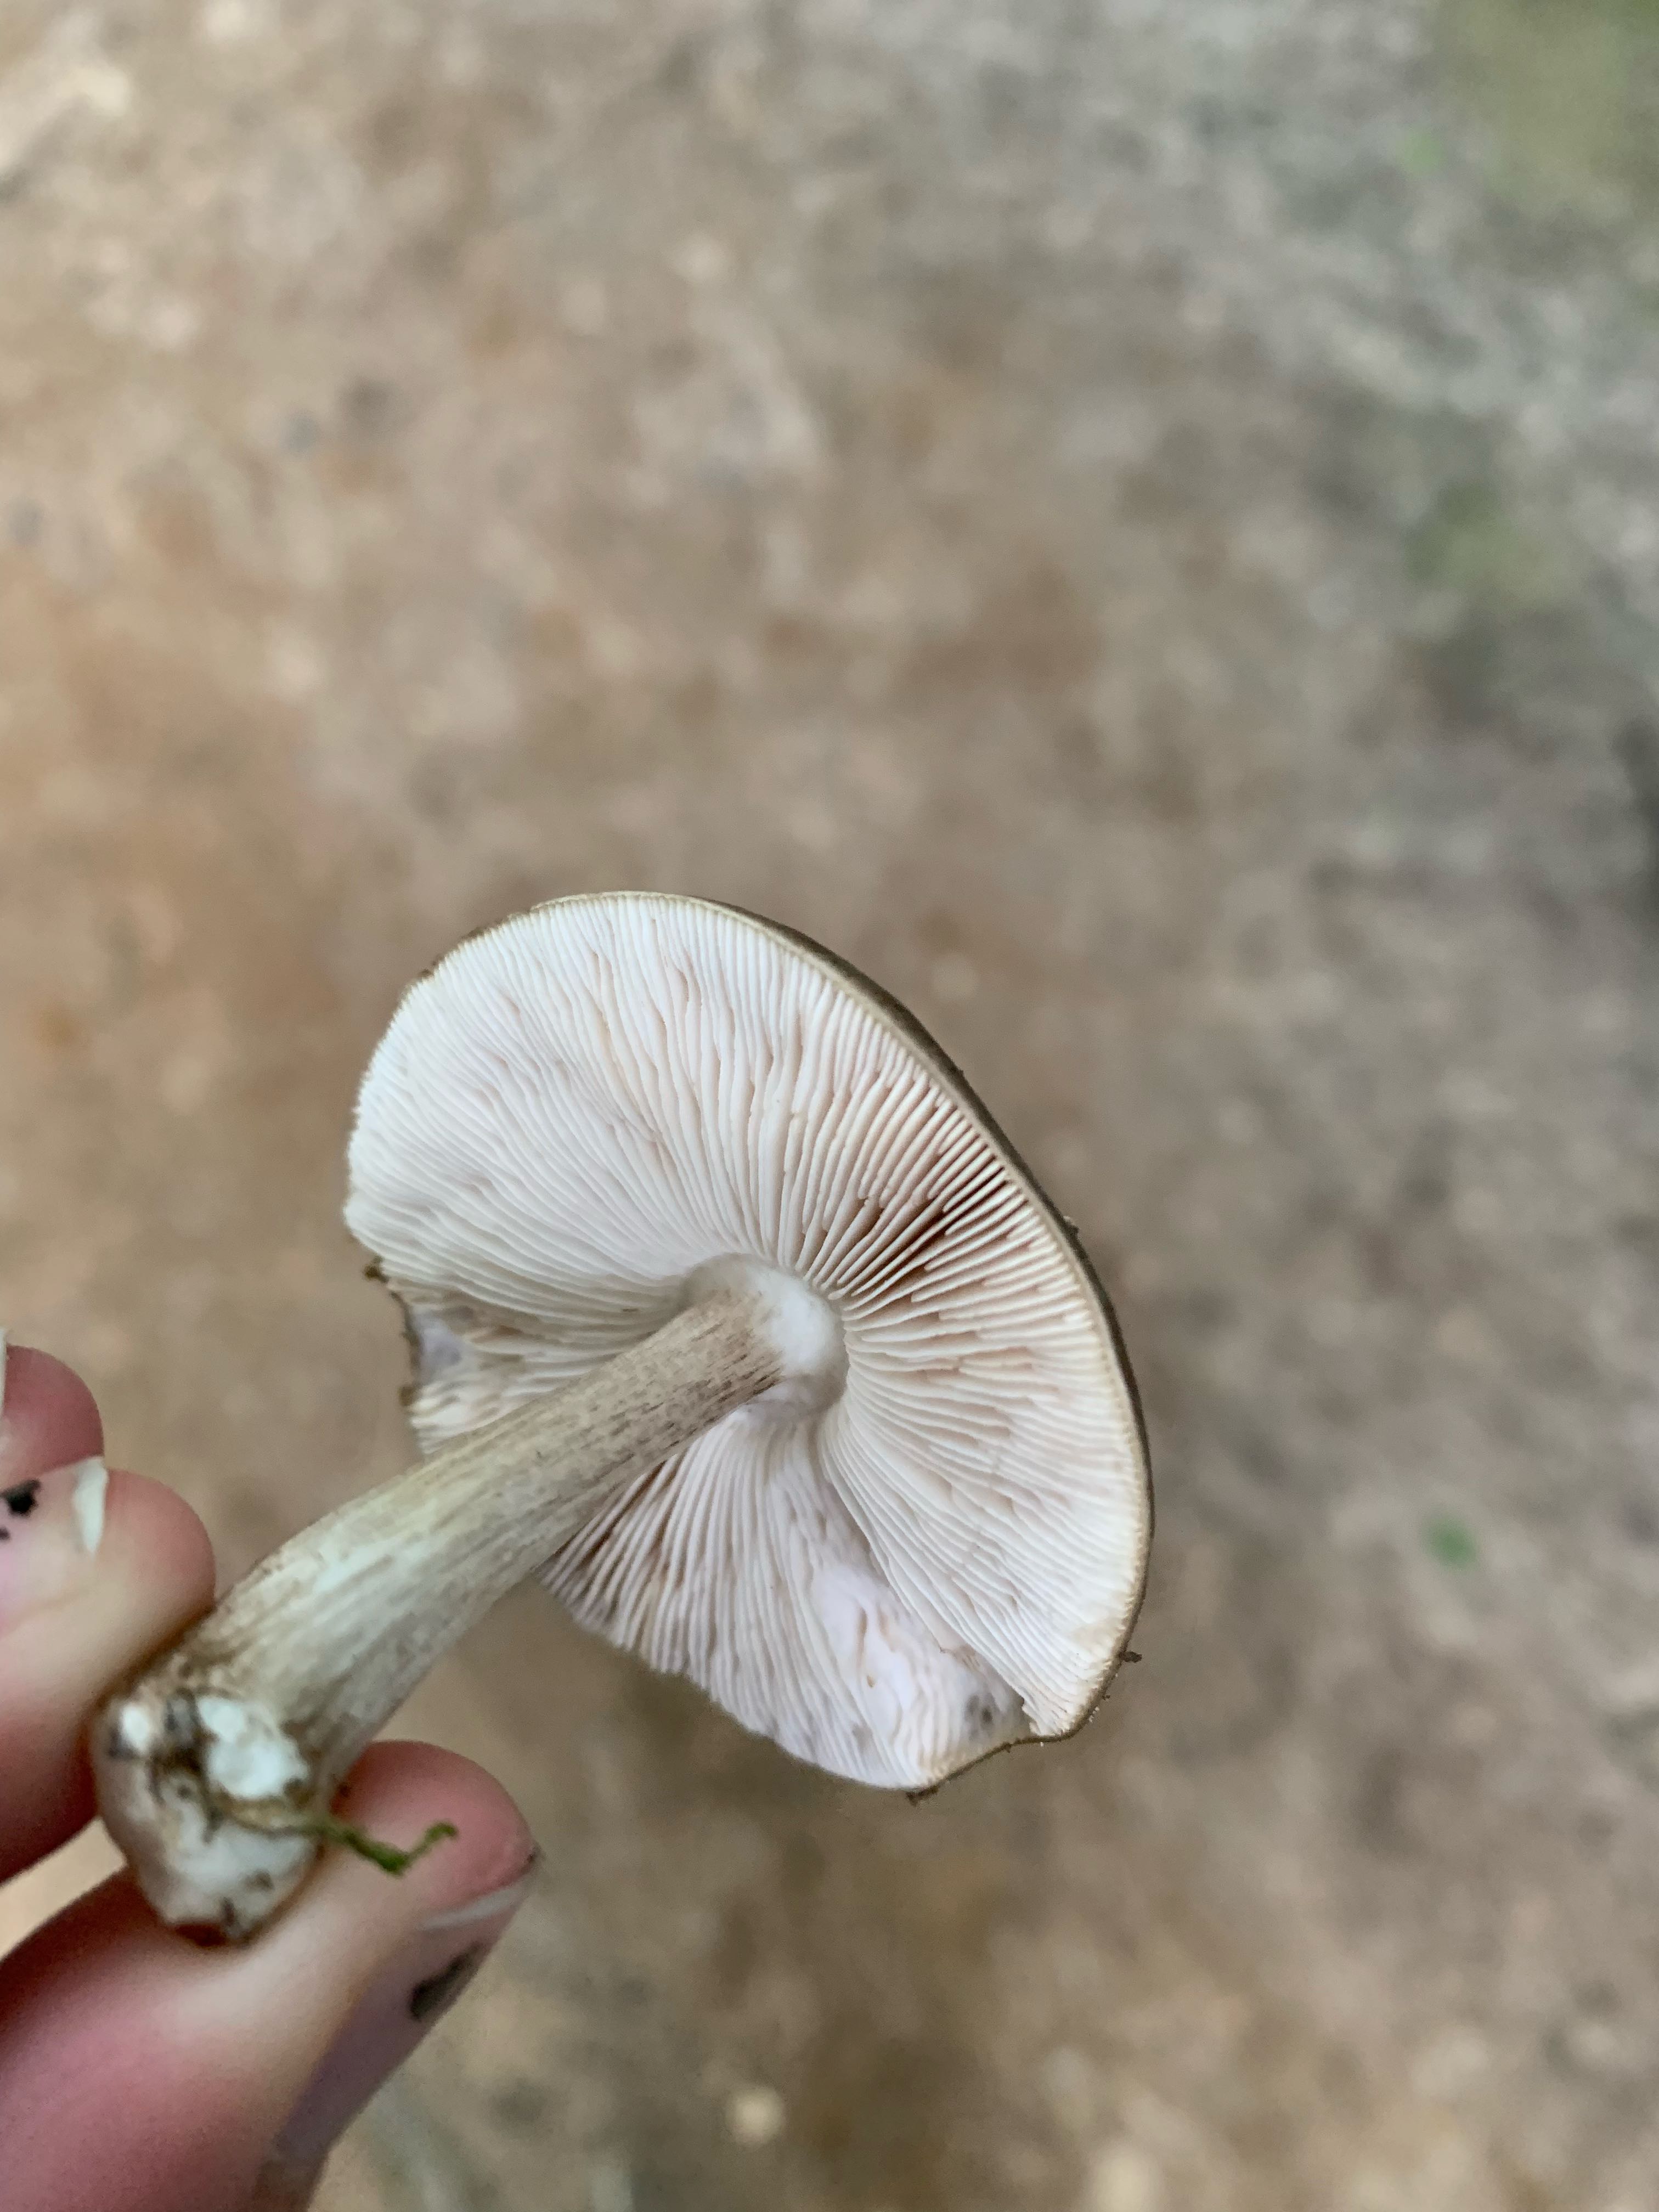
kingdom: Fungi
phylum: Basidiomycota
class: Agaricomycetes
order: Agaricales
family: Pluteaceae
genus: Pluteus
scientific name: Pluteus cervinus
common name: sodfarvet skærmhat
